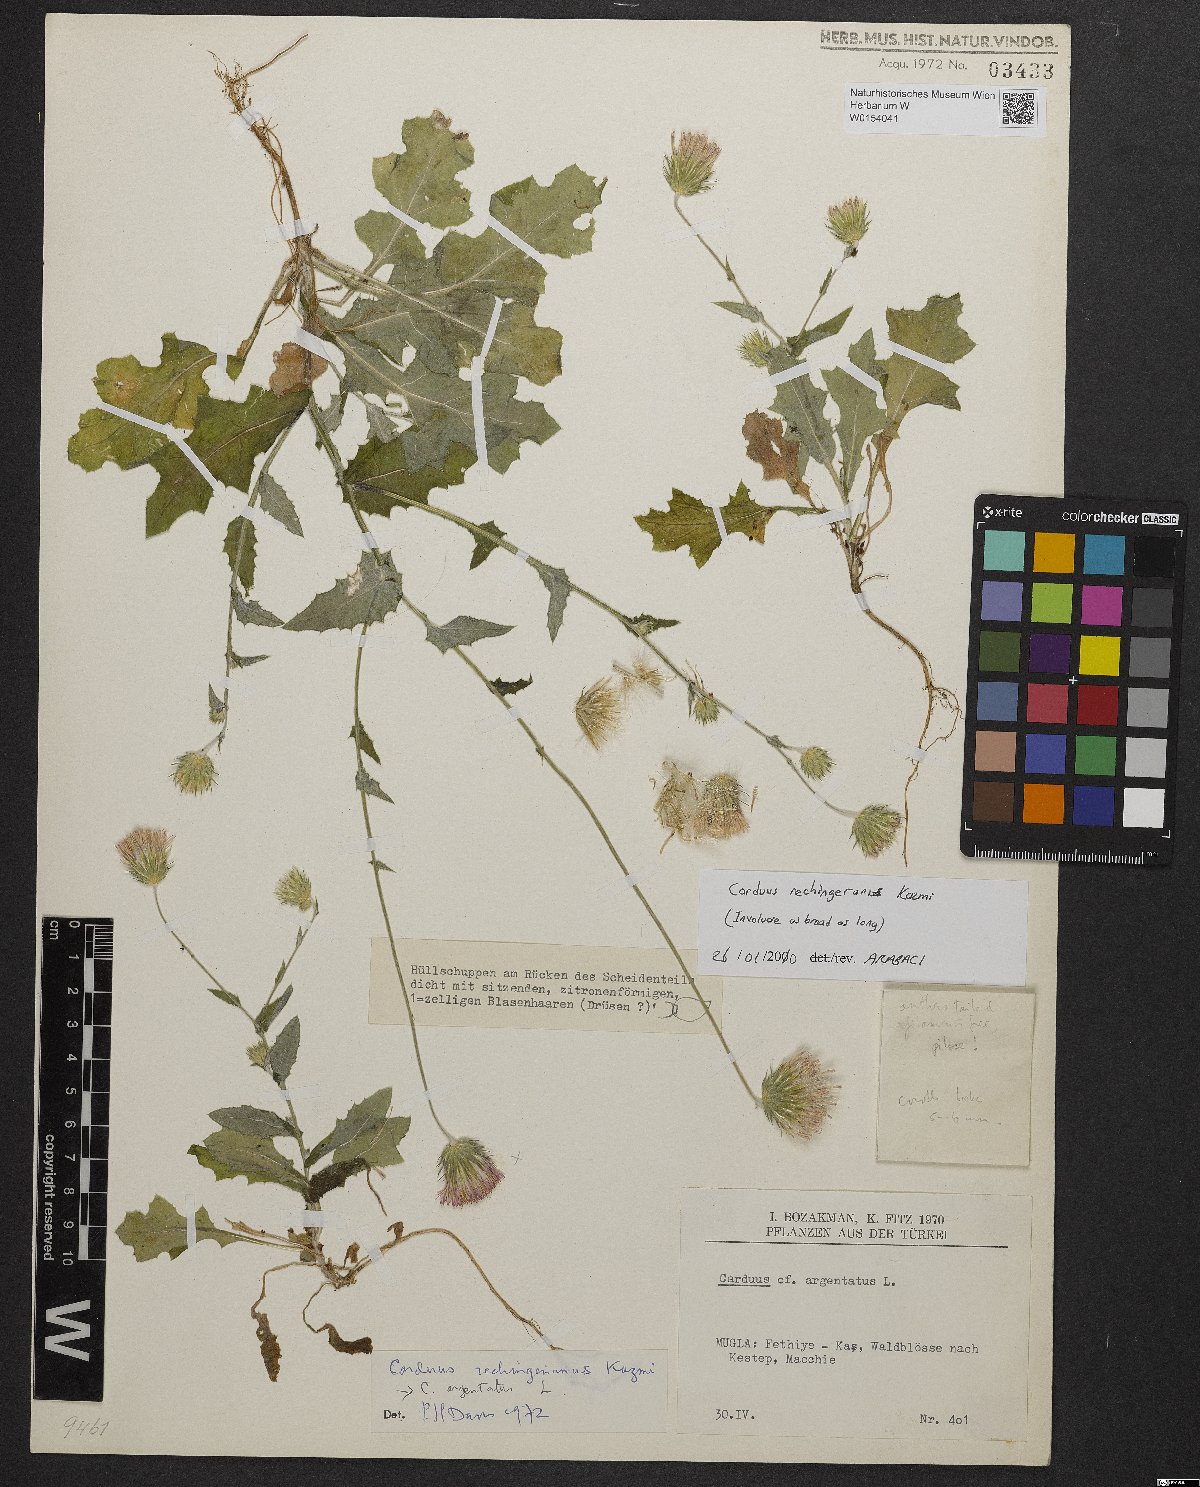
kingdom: Plantae
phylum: Tracheophyta
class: Magnoliopsida
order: Asterales
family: Asteraceae
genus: Carduus
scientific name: Carduus rechingerianus
